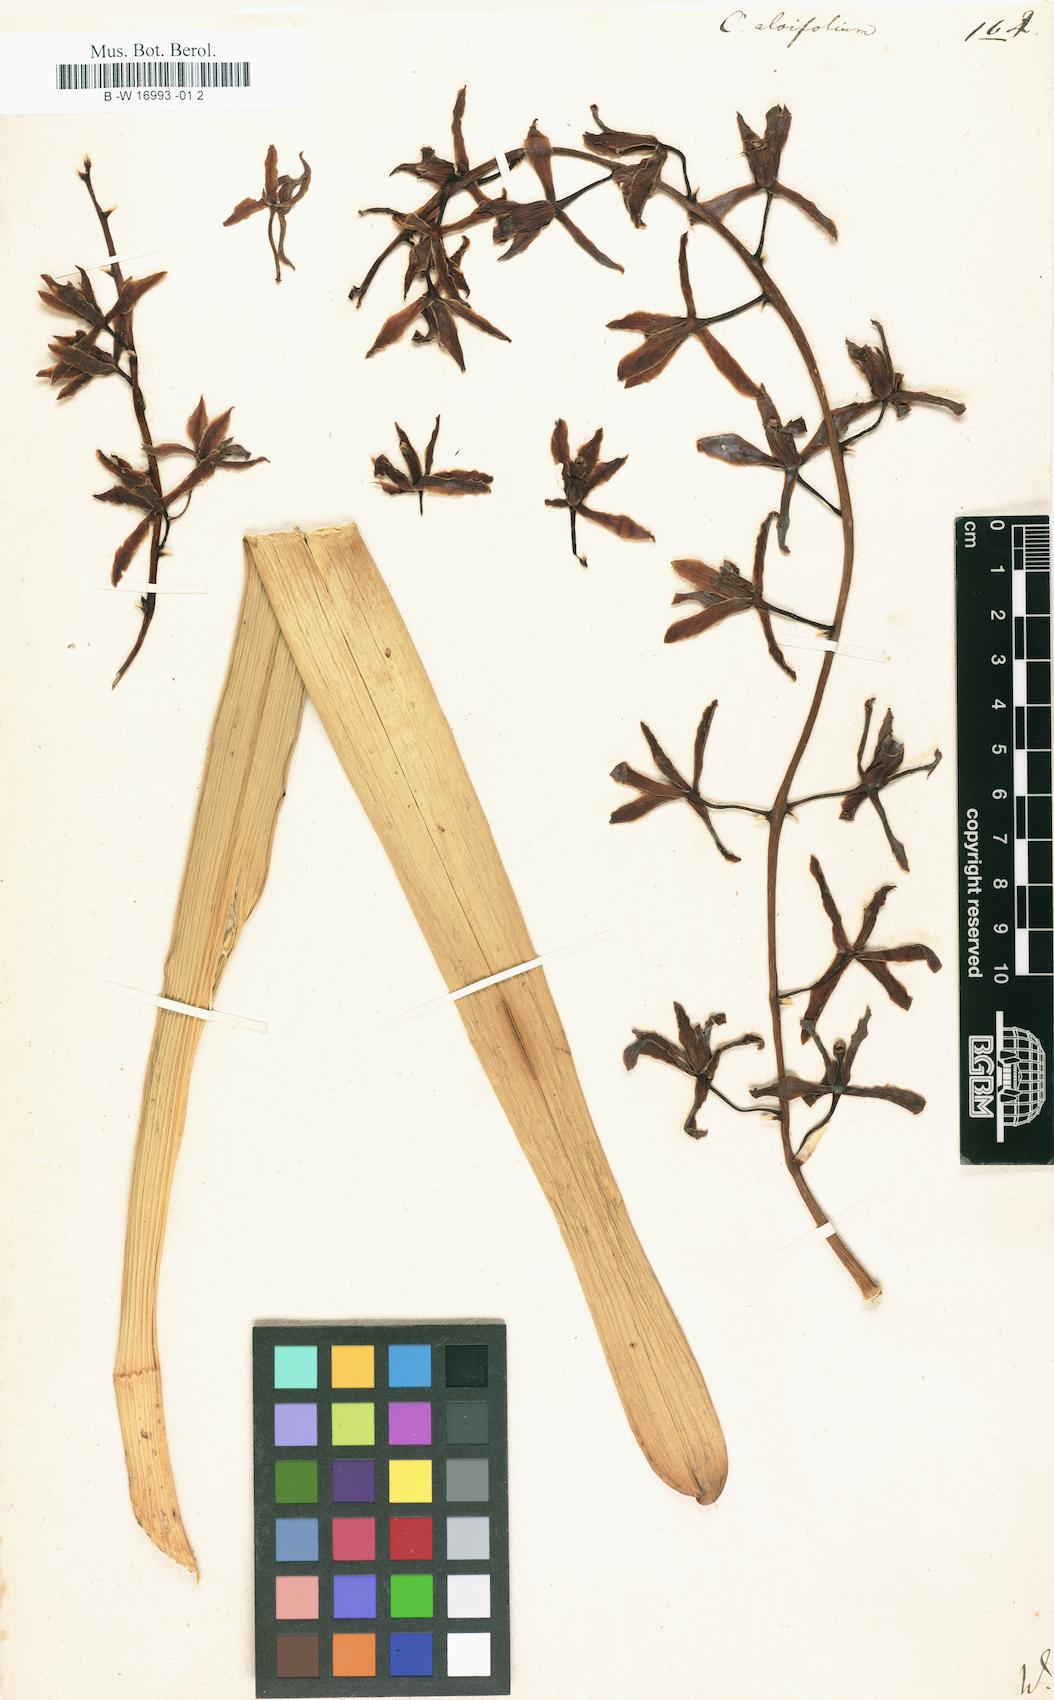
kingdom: Plantae
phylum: Tracheophyta
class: Liliopsida
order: Asparagales
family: Orchidaceae
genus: Cymbidium
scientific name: Cymbidium aloifolium
